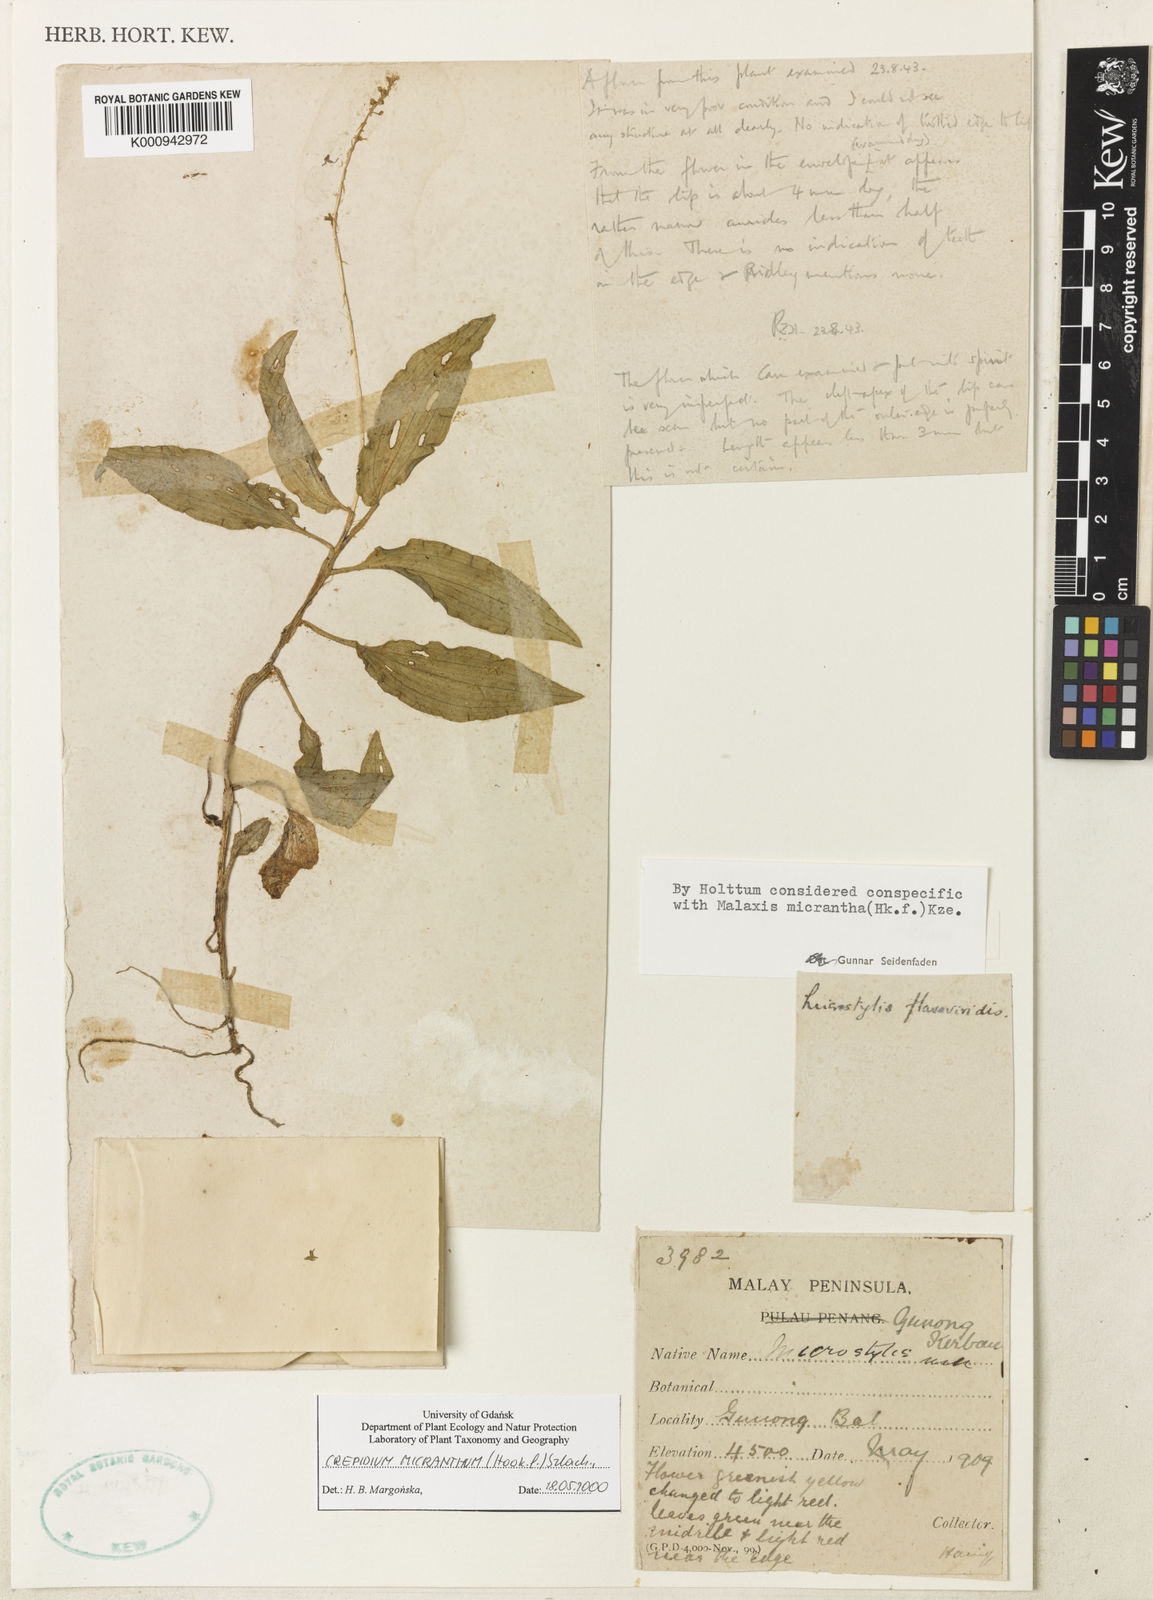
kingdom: Plantae
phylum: Tracheophyta
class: Liliopsida
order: Asparagales
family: Orchidaceae
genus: Crepidium
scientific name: Crepidium micranthum
